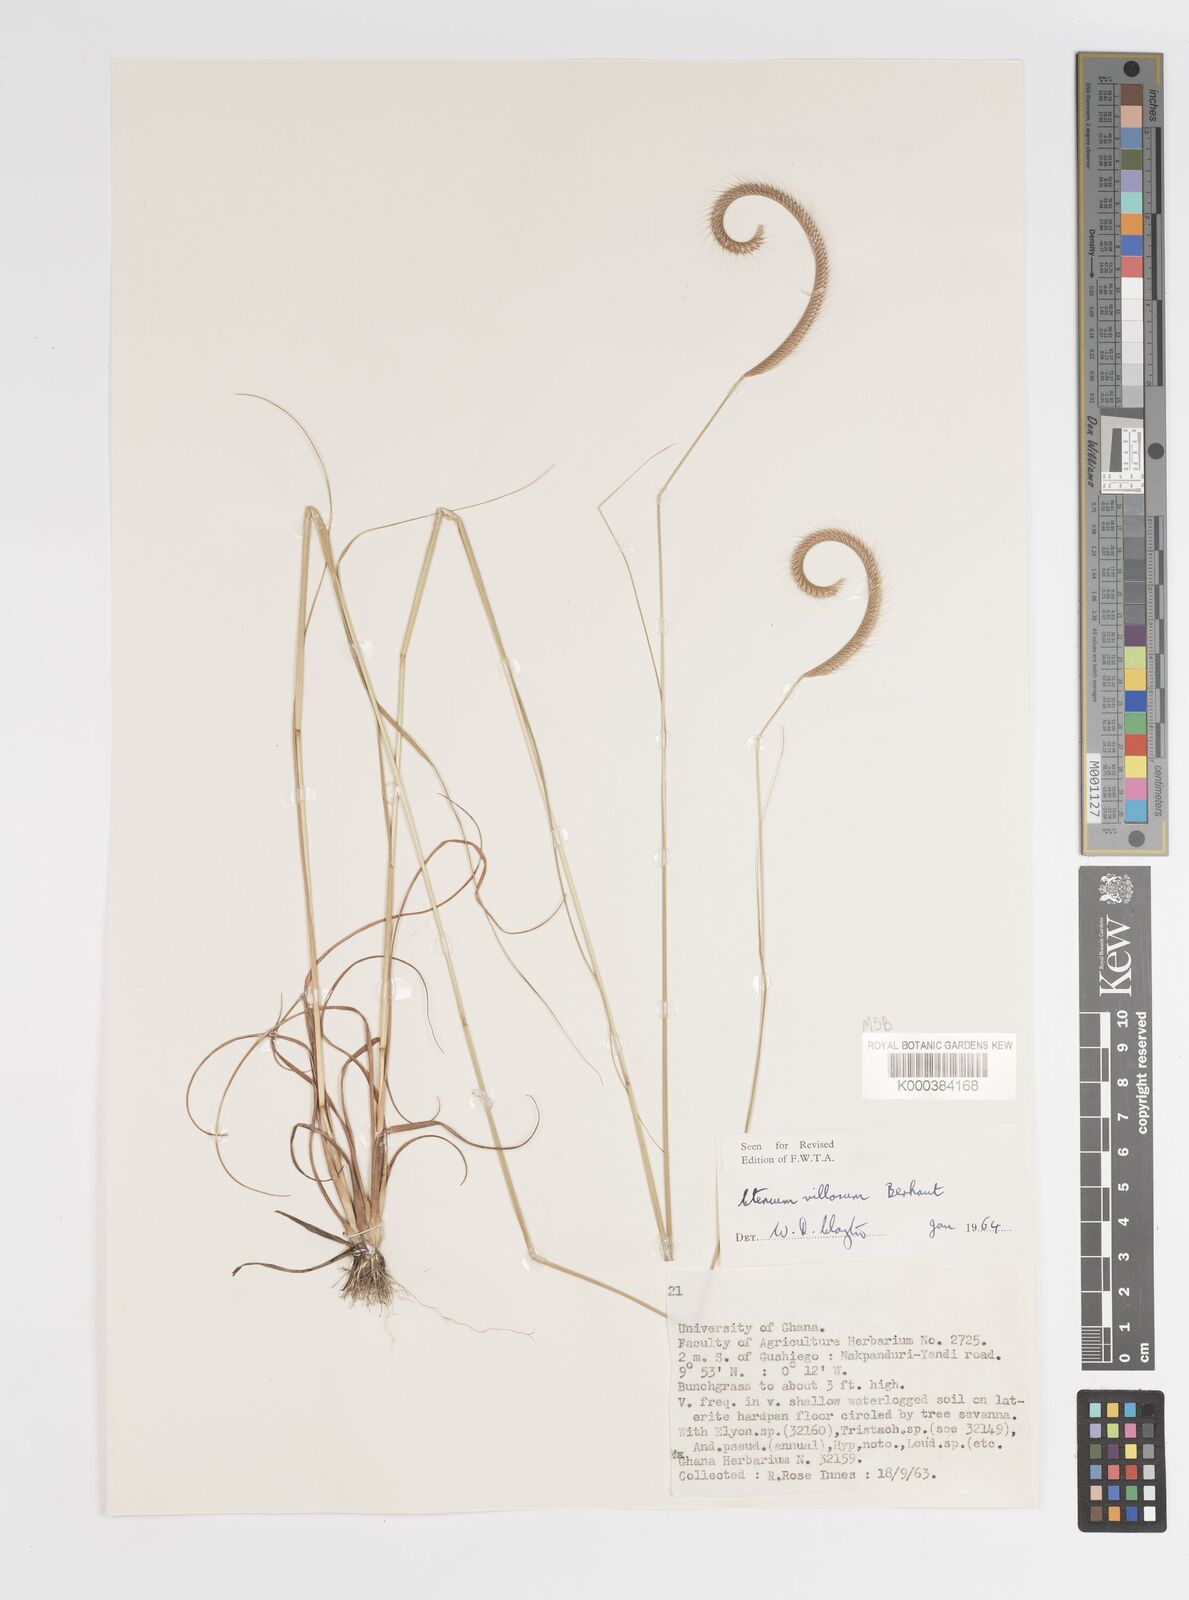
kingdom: Plantae
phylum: Tracheophyta
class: Liliopsida
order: Poales
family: Poaceae
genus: Ctenium
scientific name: Ctenium villosum
